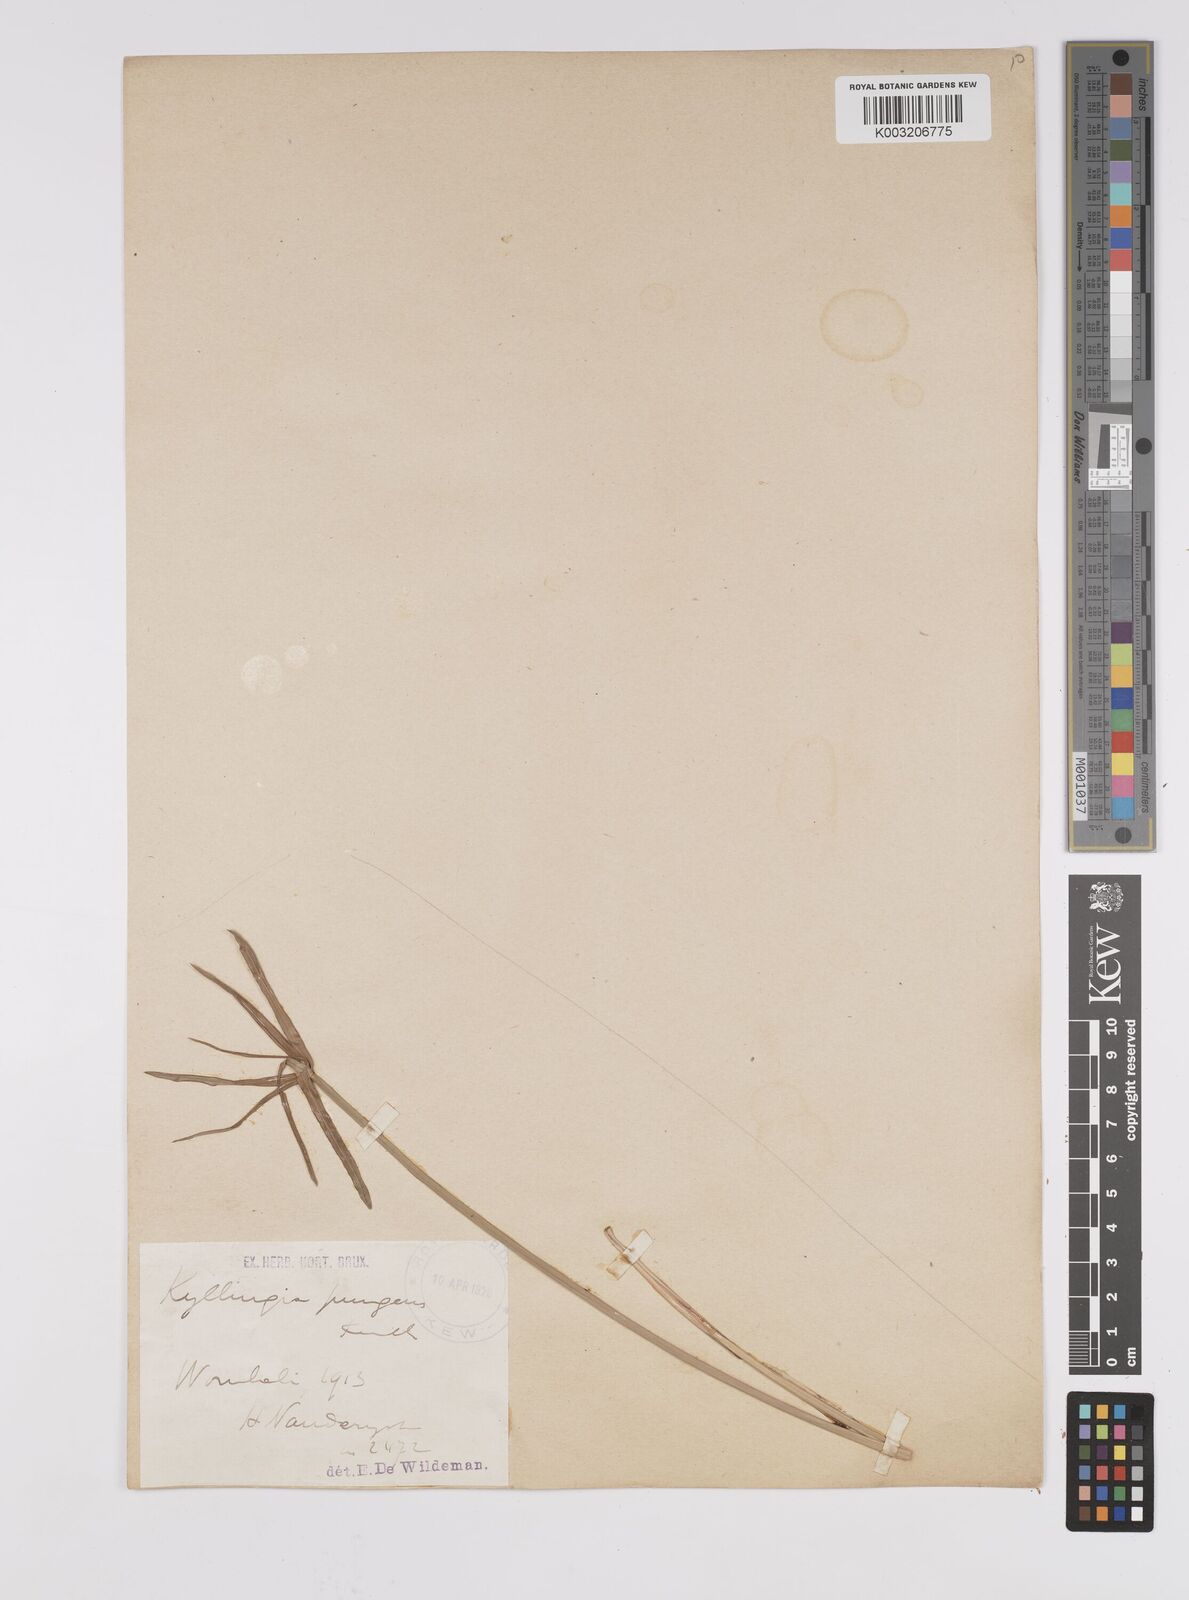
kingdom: Plantae
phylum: Tracheophyta
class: Liliopsida
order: Poales
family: Cyperaceae
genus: Cyperus
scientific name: Cyperus
